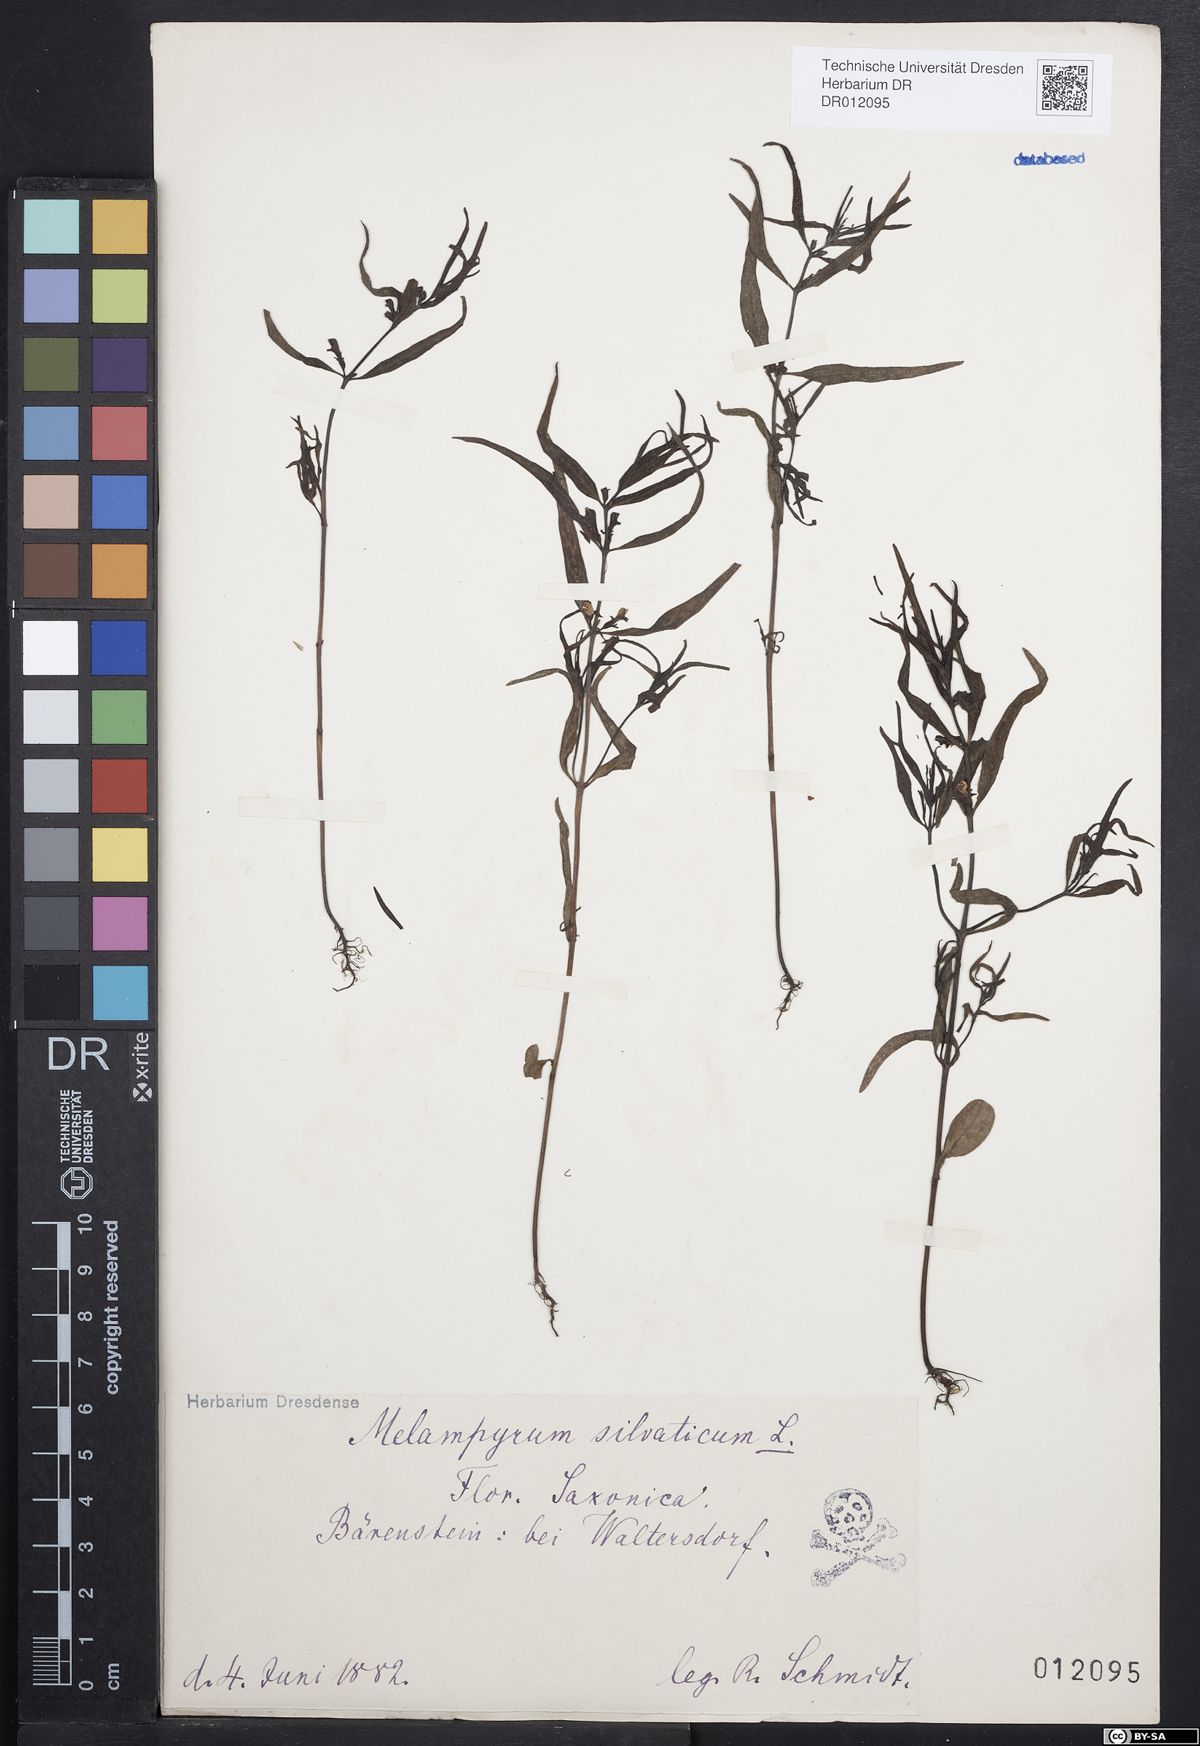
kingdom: Plantae
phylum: Tracheophyta
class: Magnoliopsida
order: Lamiales
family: Orobanchaceae
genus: Melampyrum
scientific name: Melampyrum sylvaticum
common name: Small cow-wheat
